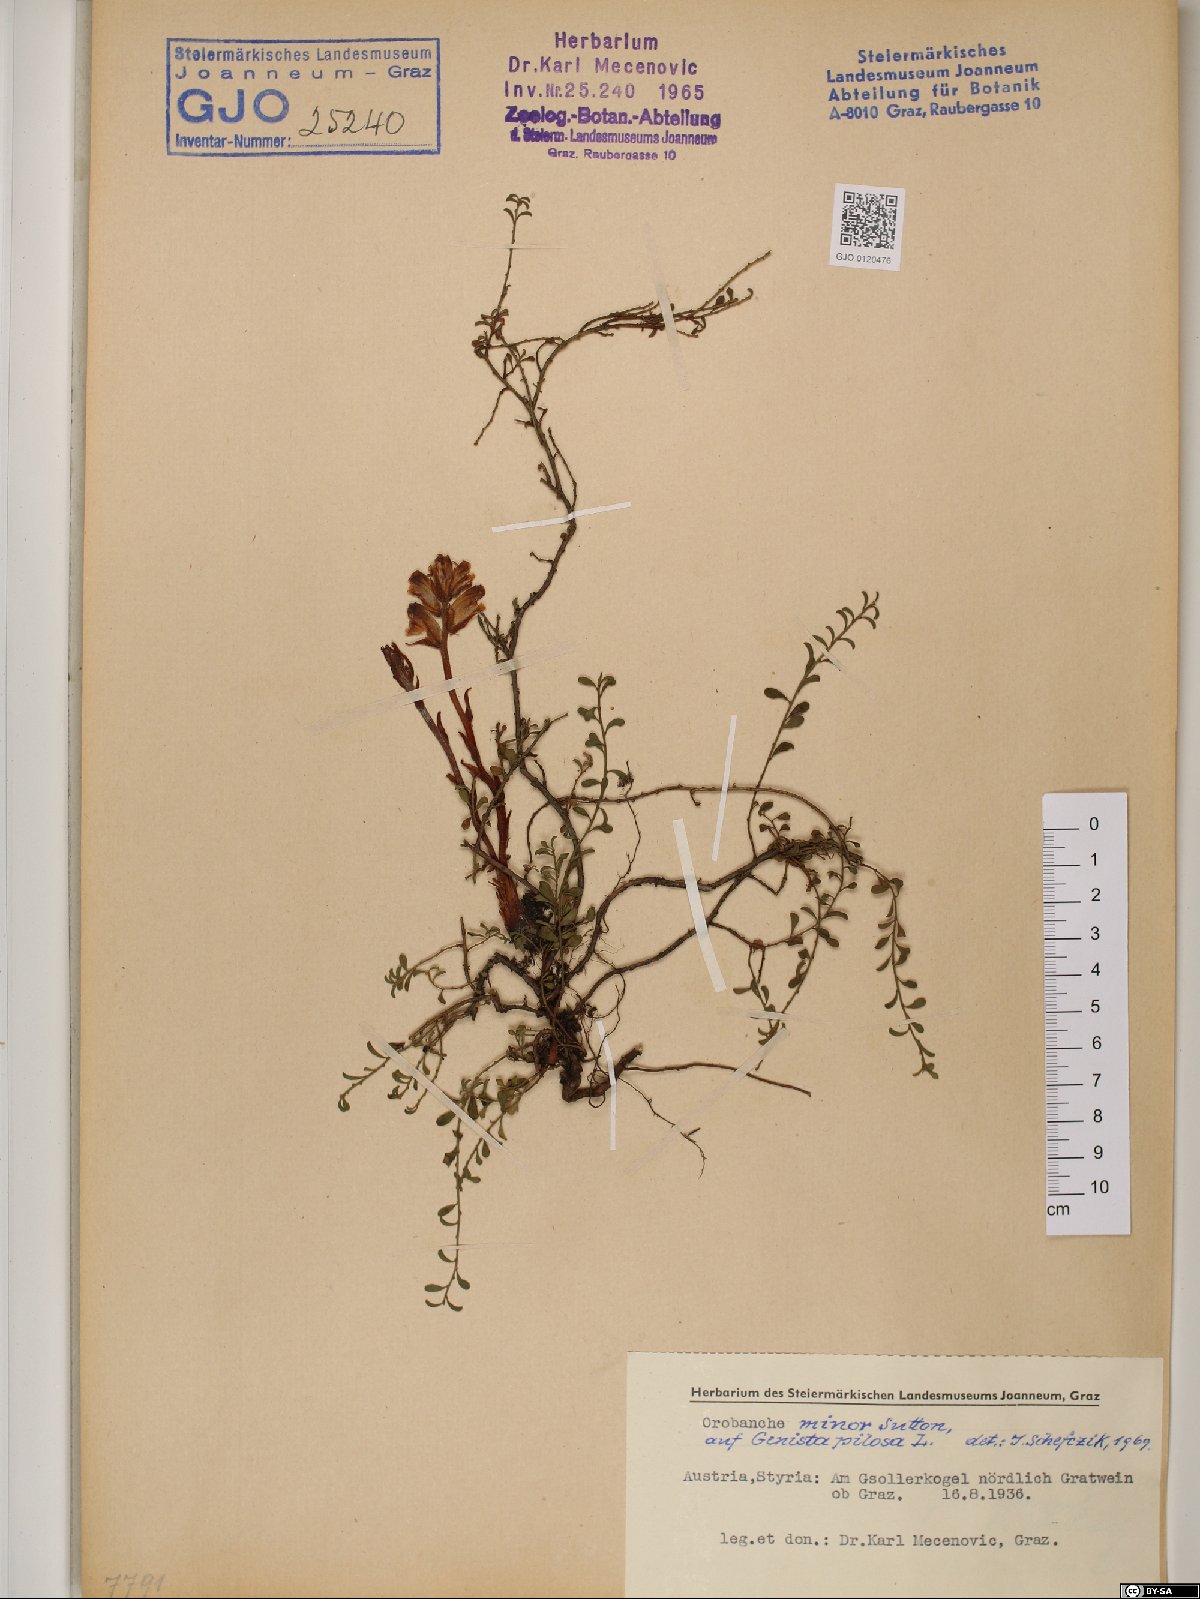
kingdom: Plantae
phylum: Tracheophyta
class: Magnoliopsida
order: Lamiales
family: Orobanchaceae
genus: Orobanche
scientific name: Orobanche minor
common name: Common broomrape
